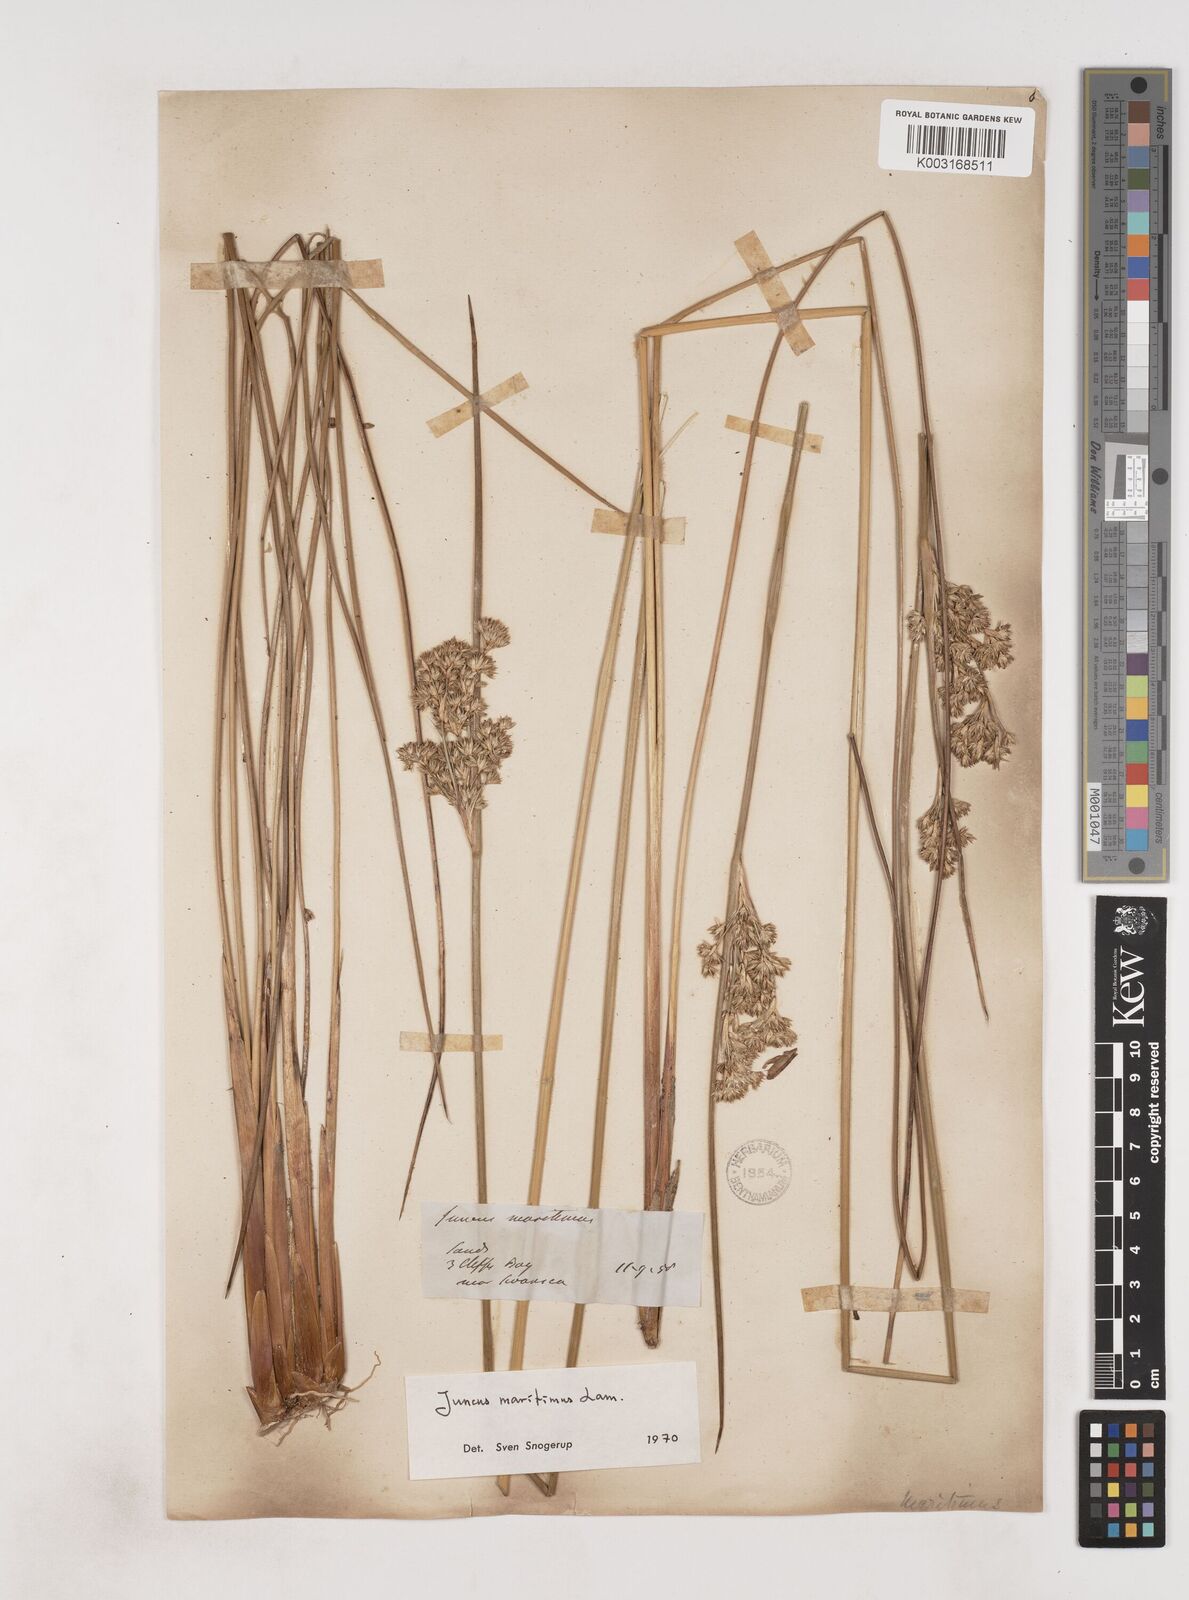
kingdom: Plantae
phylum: Tracheophyta
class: Liliopsida
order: Poales
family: Juncaceae
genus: Juncus
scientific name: Juncus maritimus
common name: Sea rush
